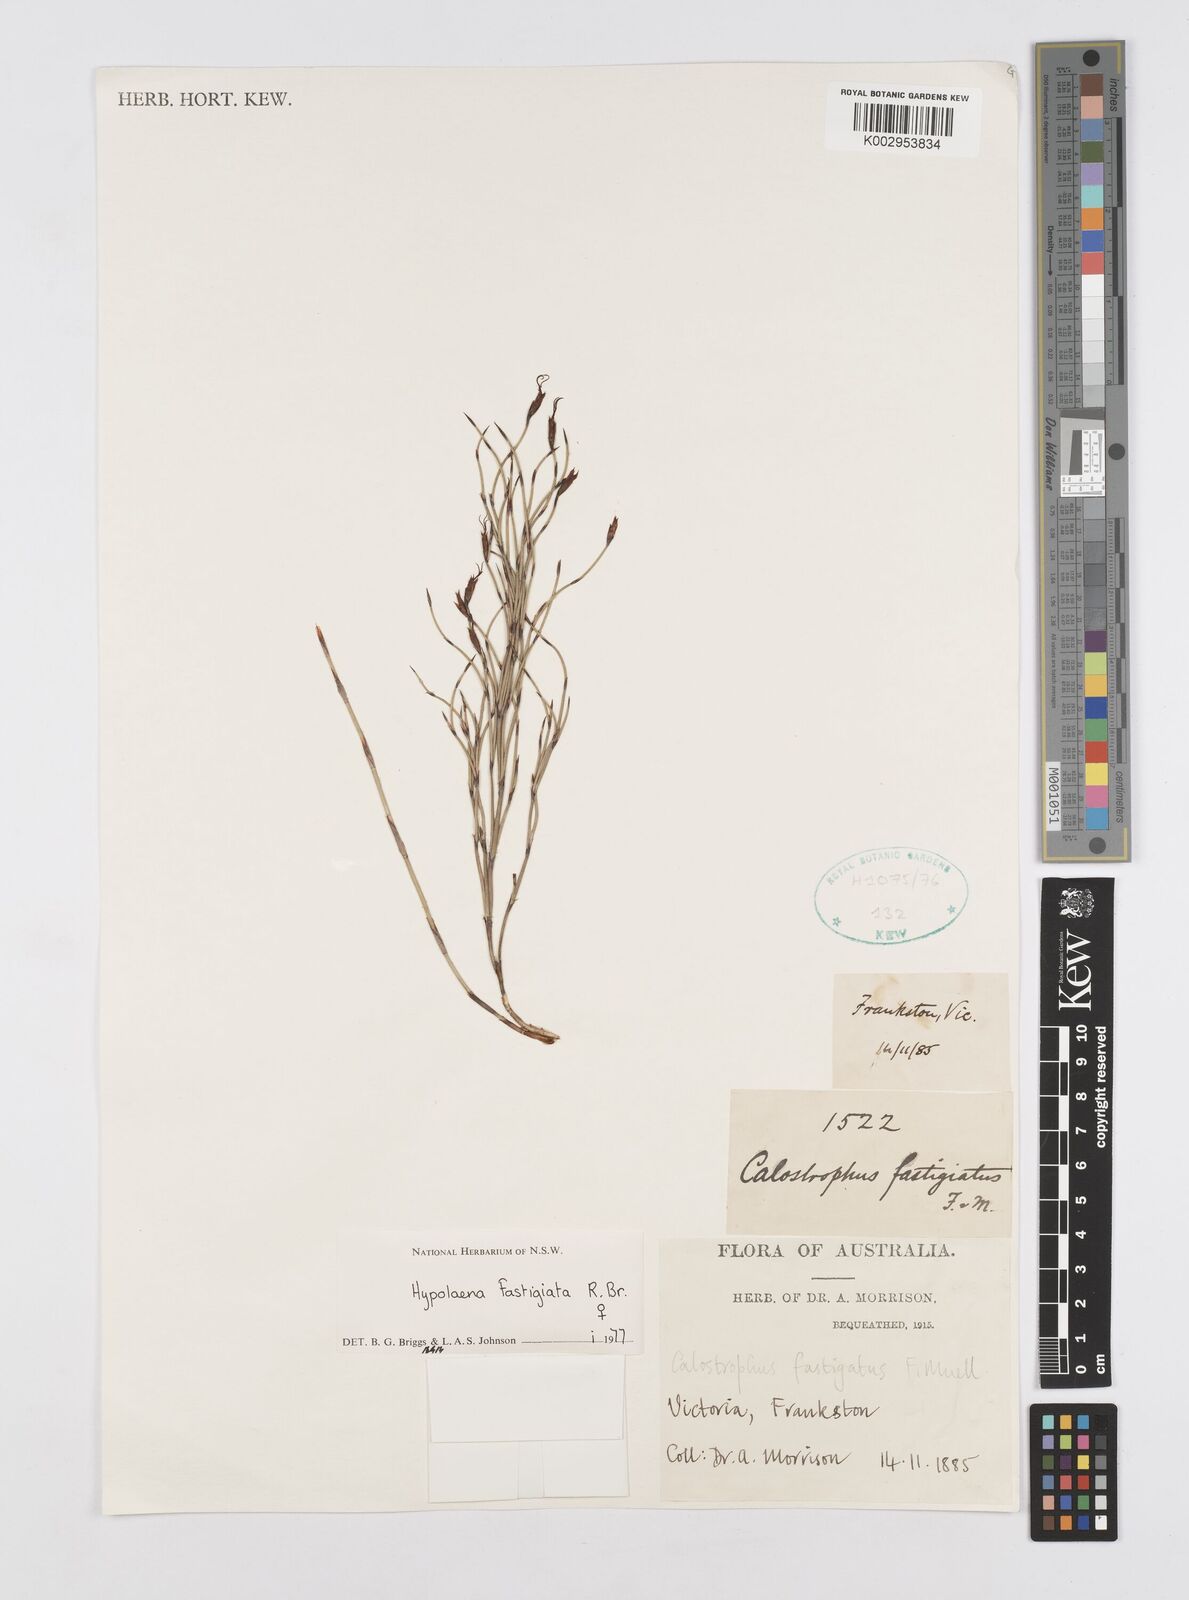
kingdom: Plantae
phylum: Tracheophyta
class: Liliopsida
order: Poales
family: Restionaceae
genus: Hypolaena
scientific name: Hypolaena fastigiata
